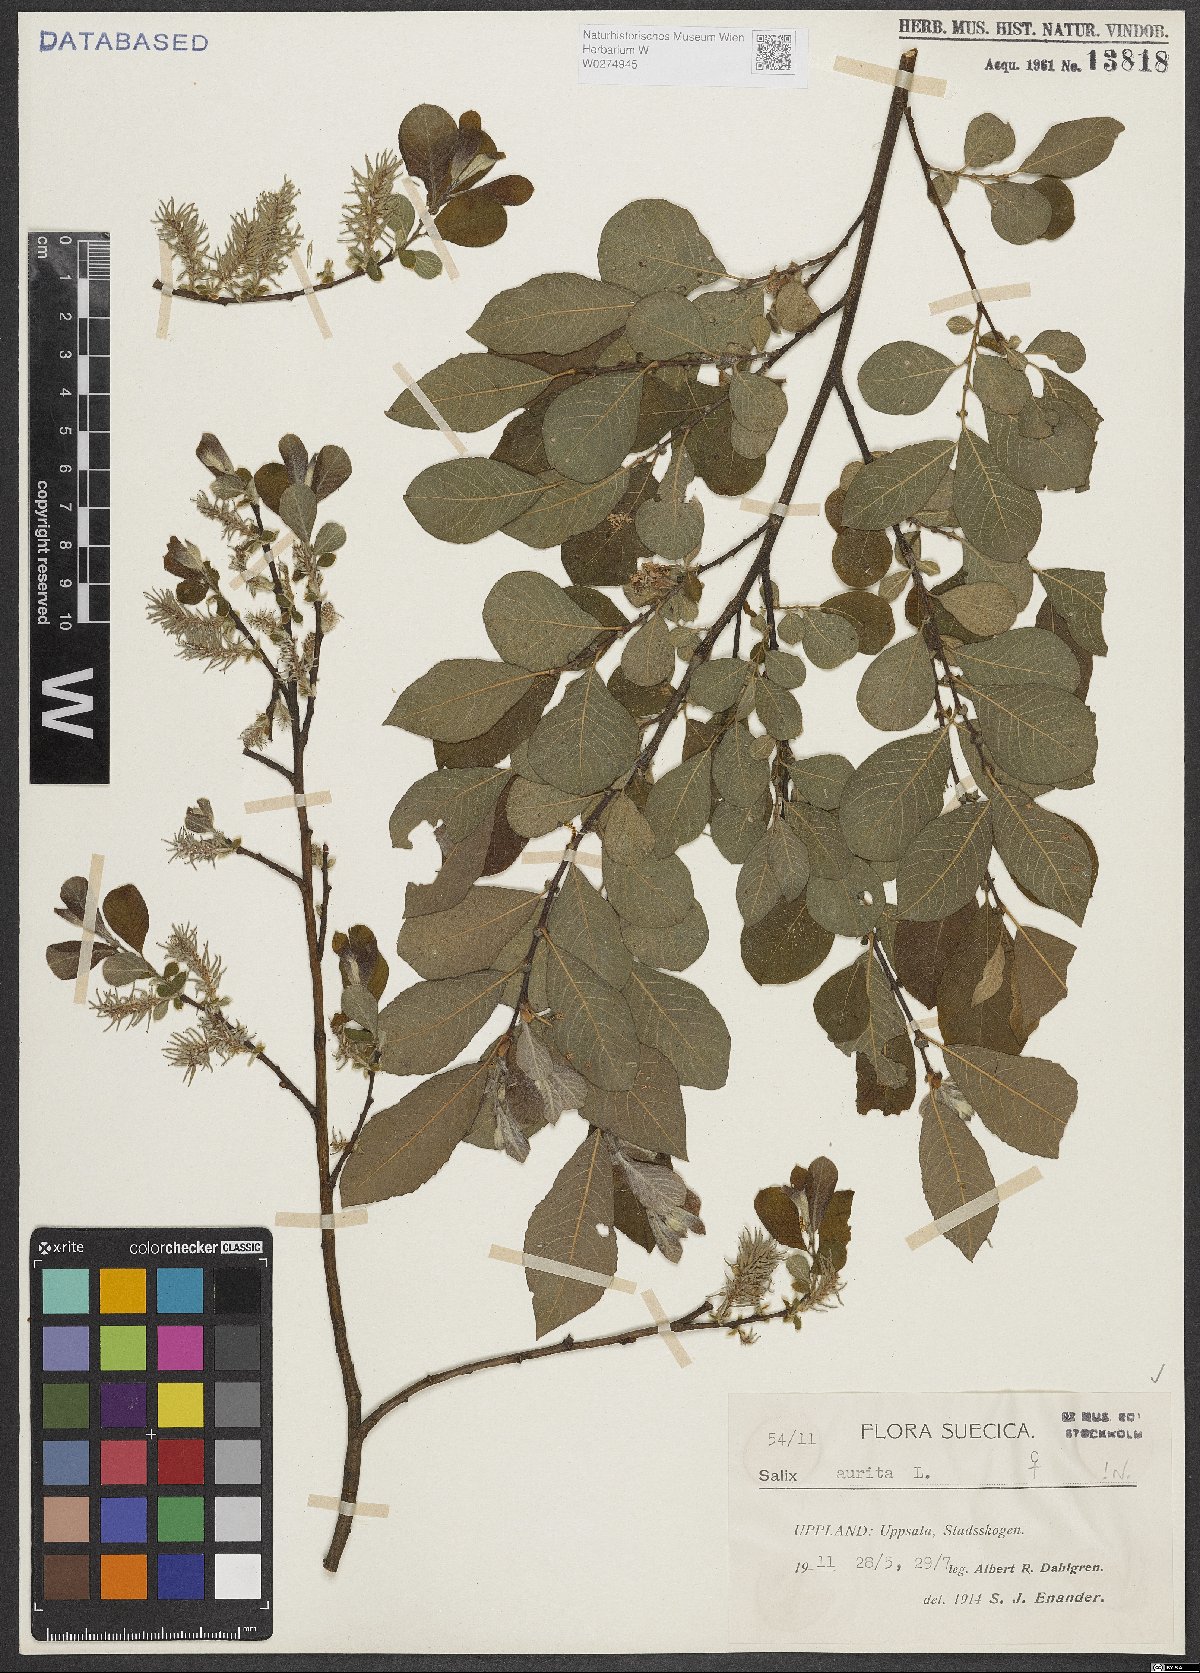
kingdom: Plantae
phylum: Tracheophyta
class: Magnoliopsida
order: Malpighiales
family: Salicaceae
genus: Salix
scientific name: Salix aurita
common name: Eared willow
